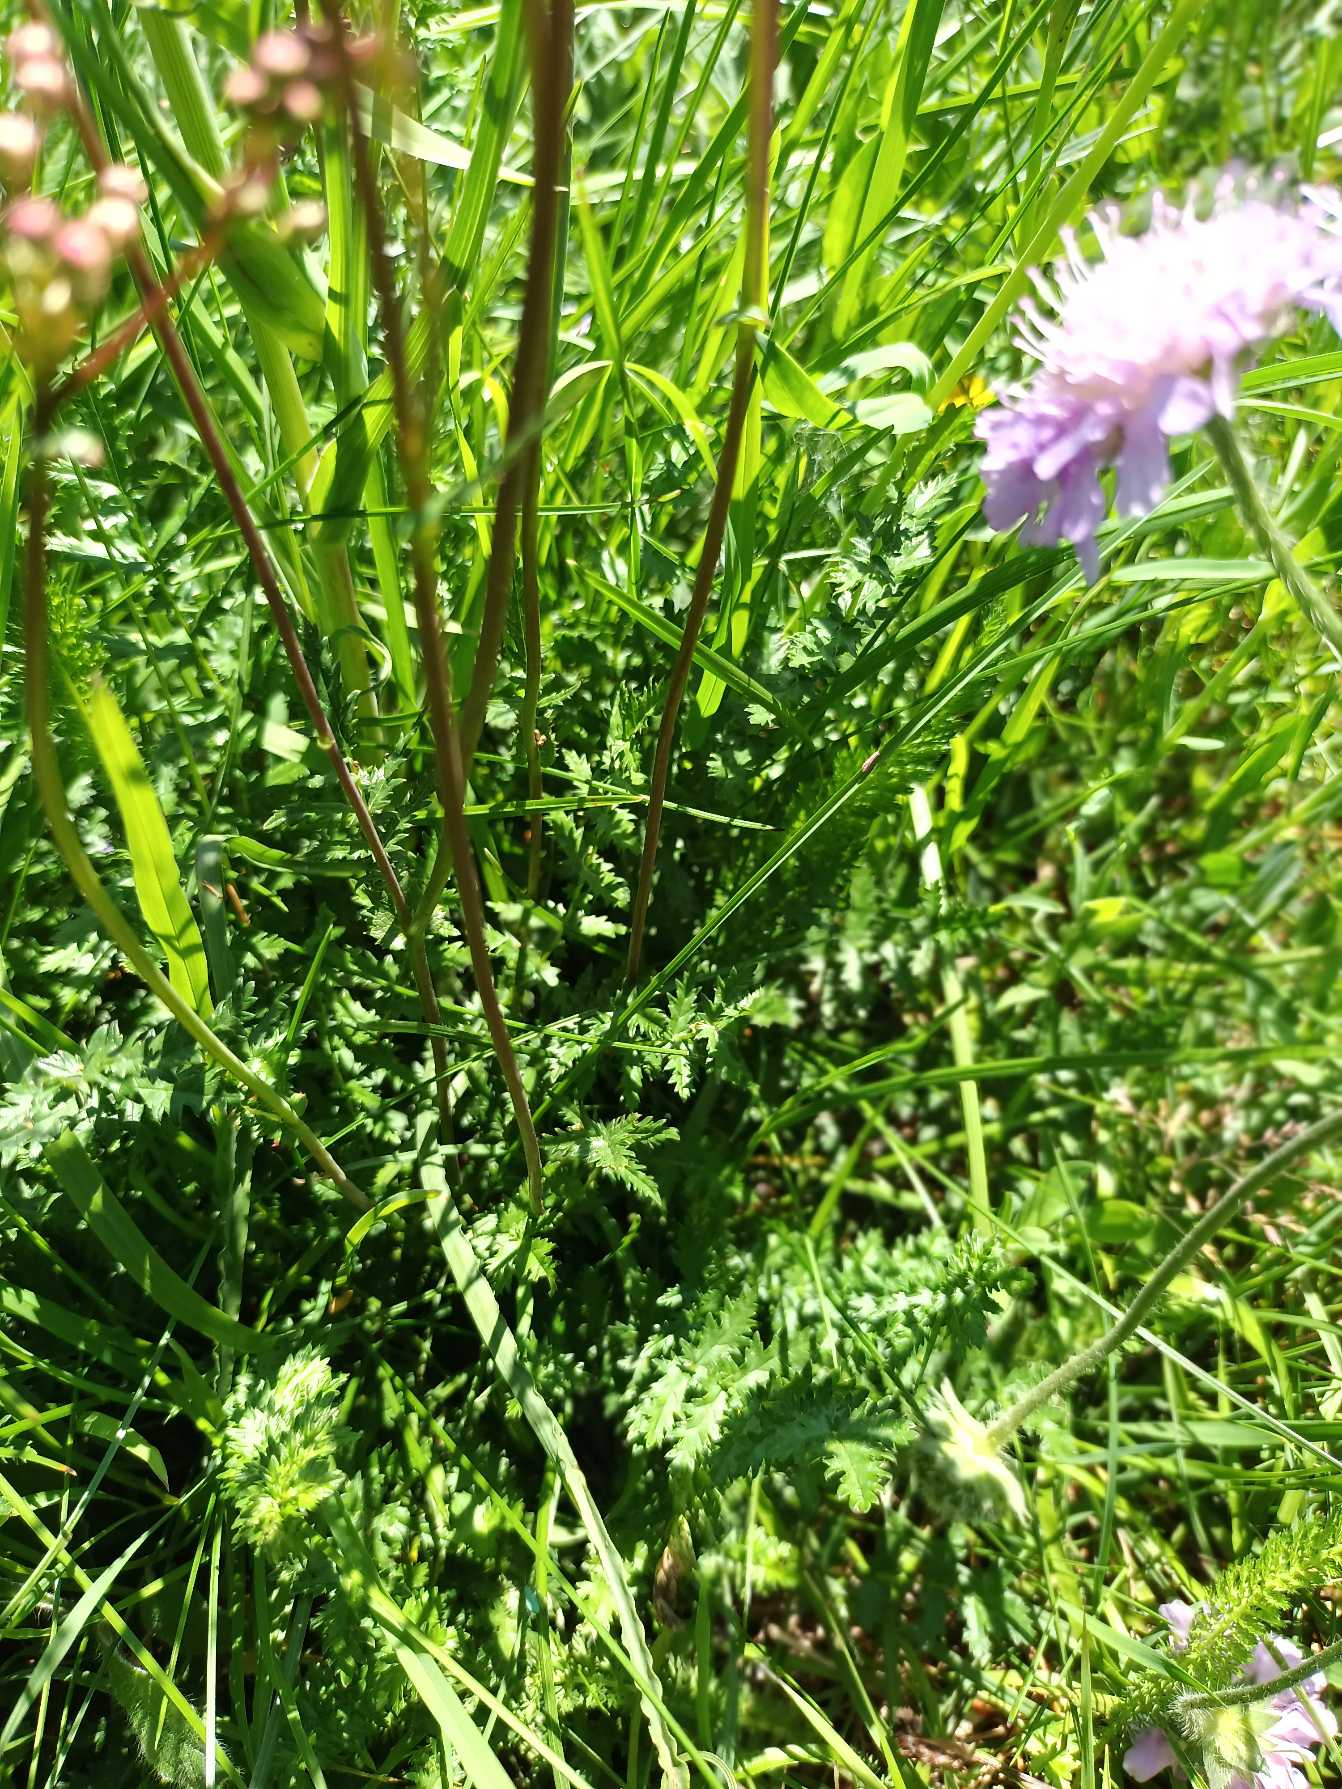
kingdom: Plantae
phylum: Tracheophyta
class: Magnoliopsida
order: Rosales
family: Rosaceae
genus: Filipendula
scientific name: Filipendula vulgaris
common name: Knoldet mjødurt
